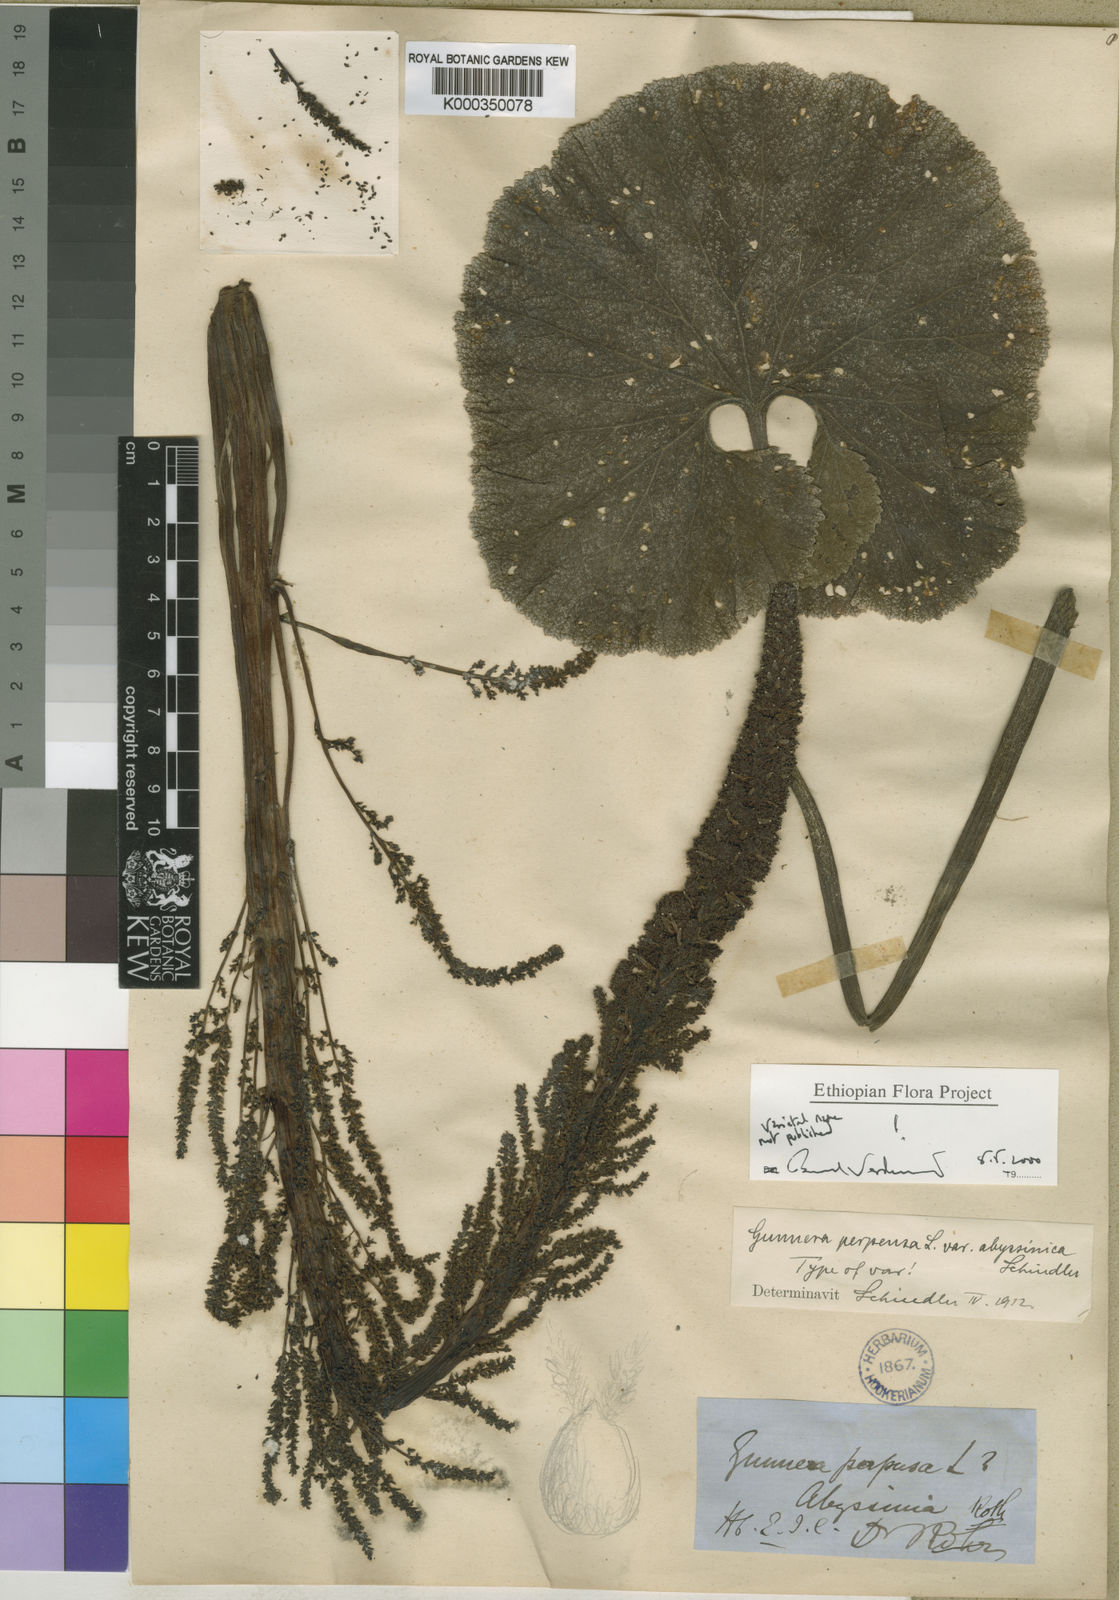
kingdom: Plantae
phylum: Tracheophyta
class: Magnoliopsida
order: Gunnerales
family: Gunneraceae
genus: Gunnera
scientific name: Gunnera perpensa
